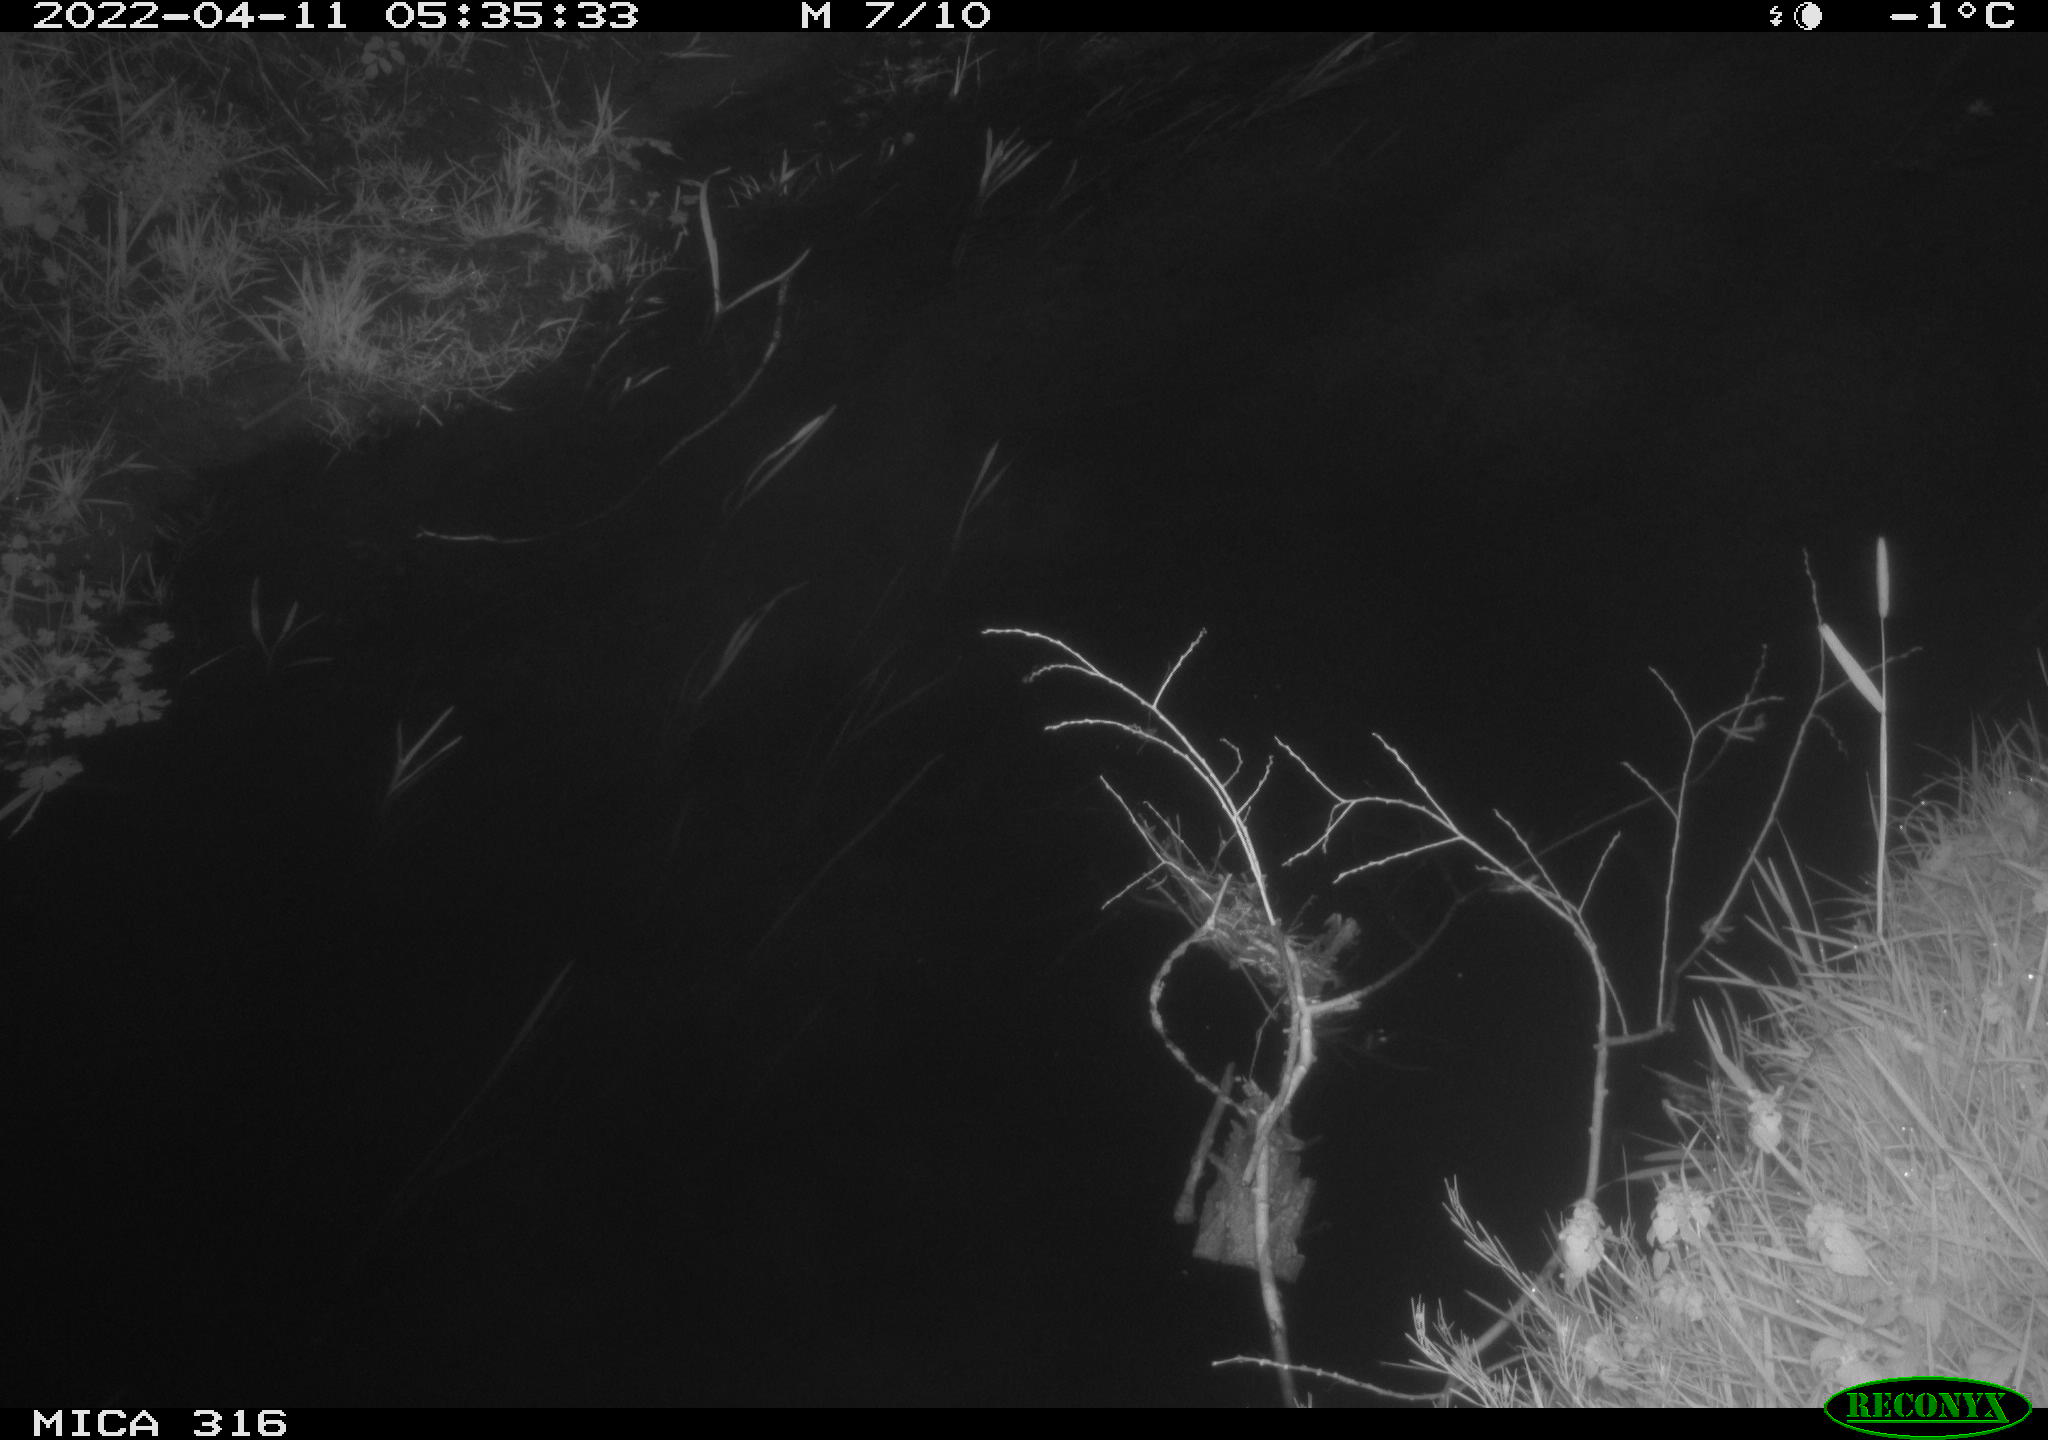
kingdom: Animalia
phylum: Chordata
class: Aves
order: Anseriformes
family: Anatidae
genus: Anas
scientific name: Anas platyrhynchos
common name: Mallard
